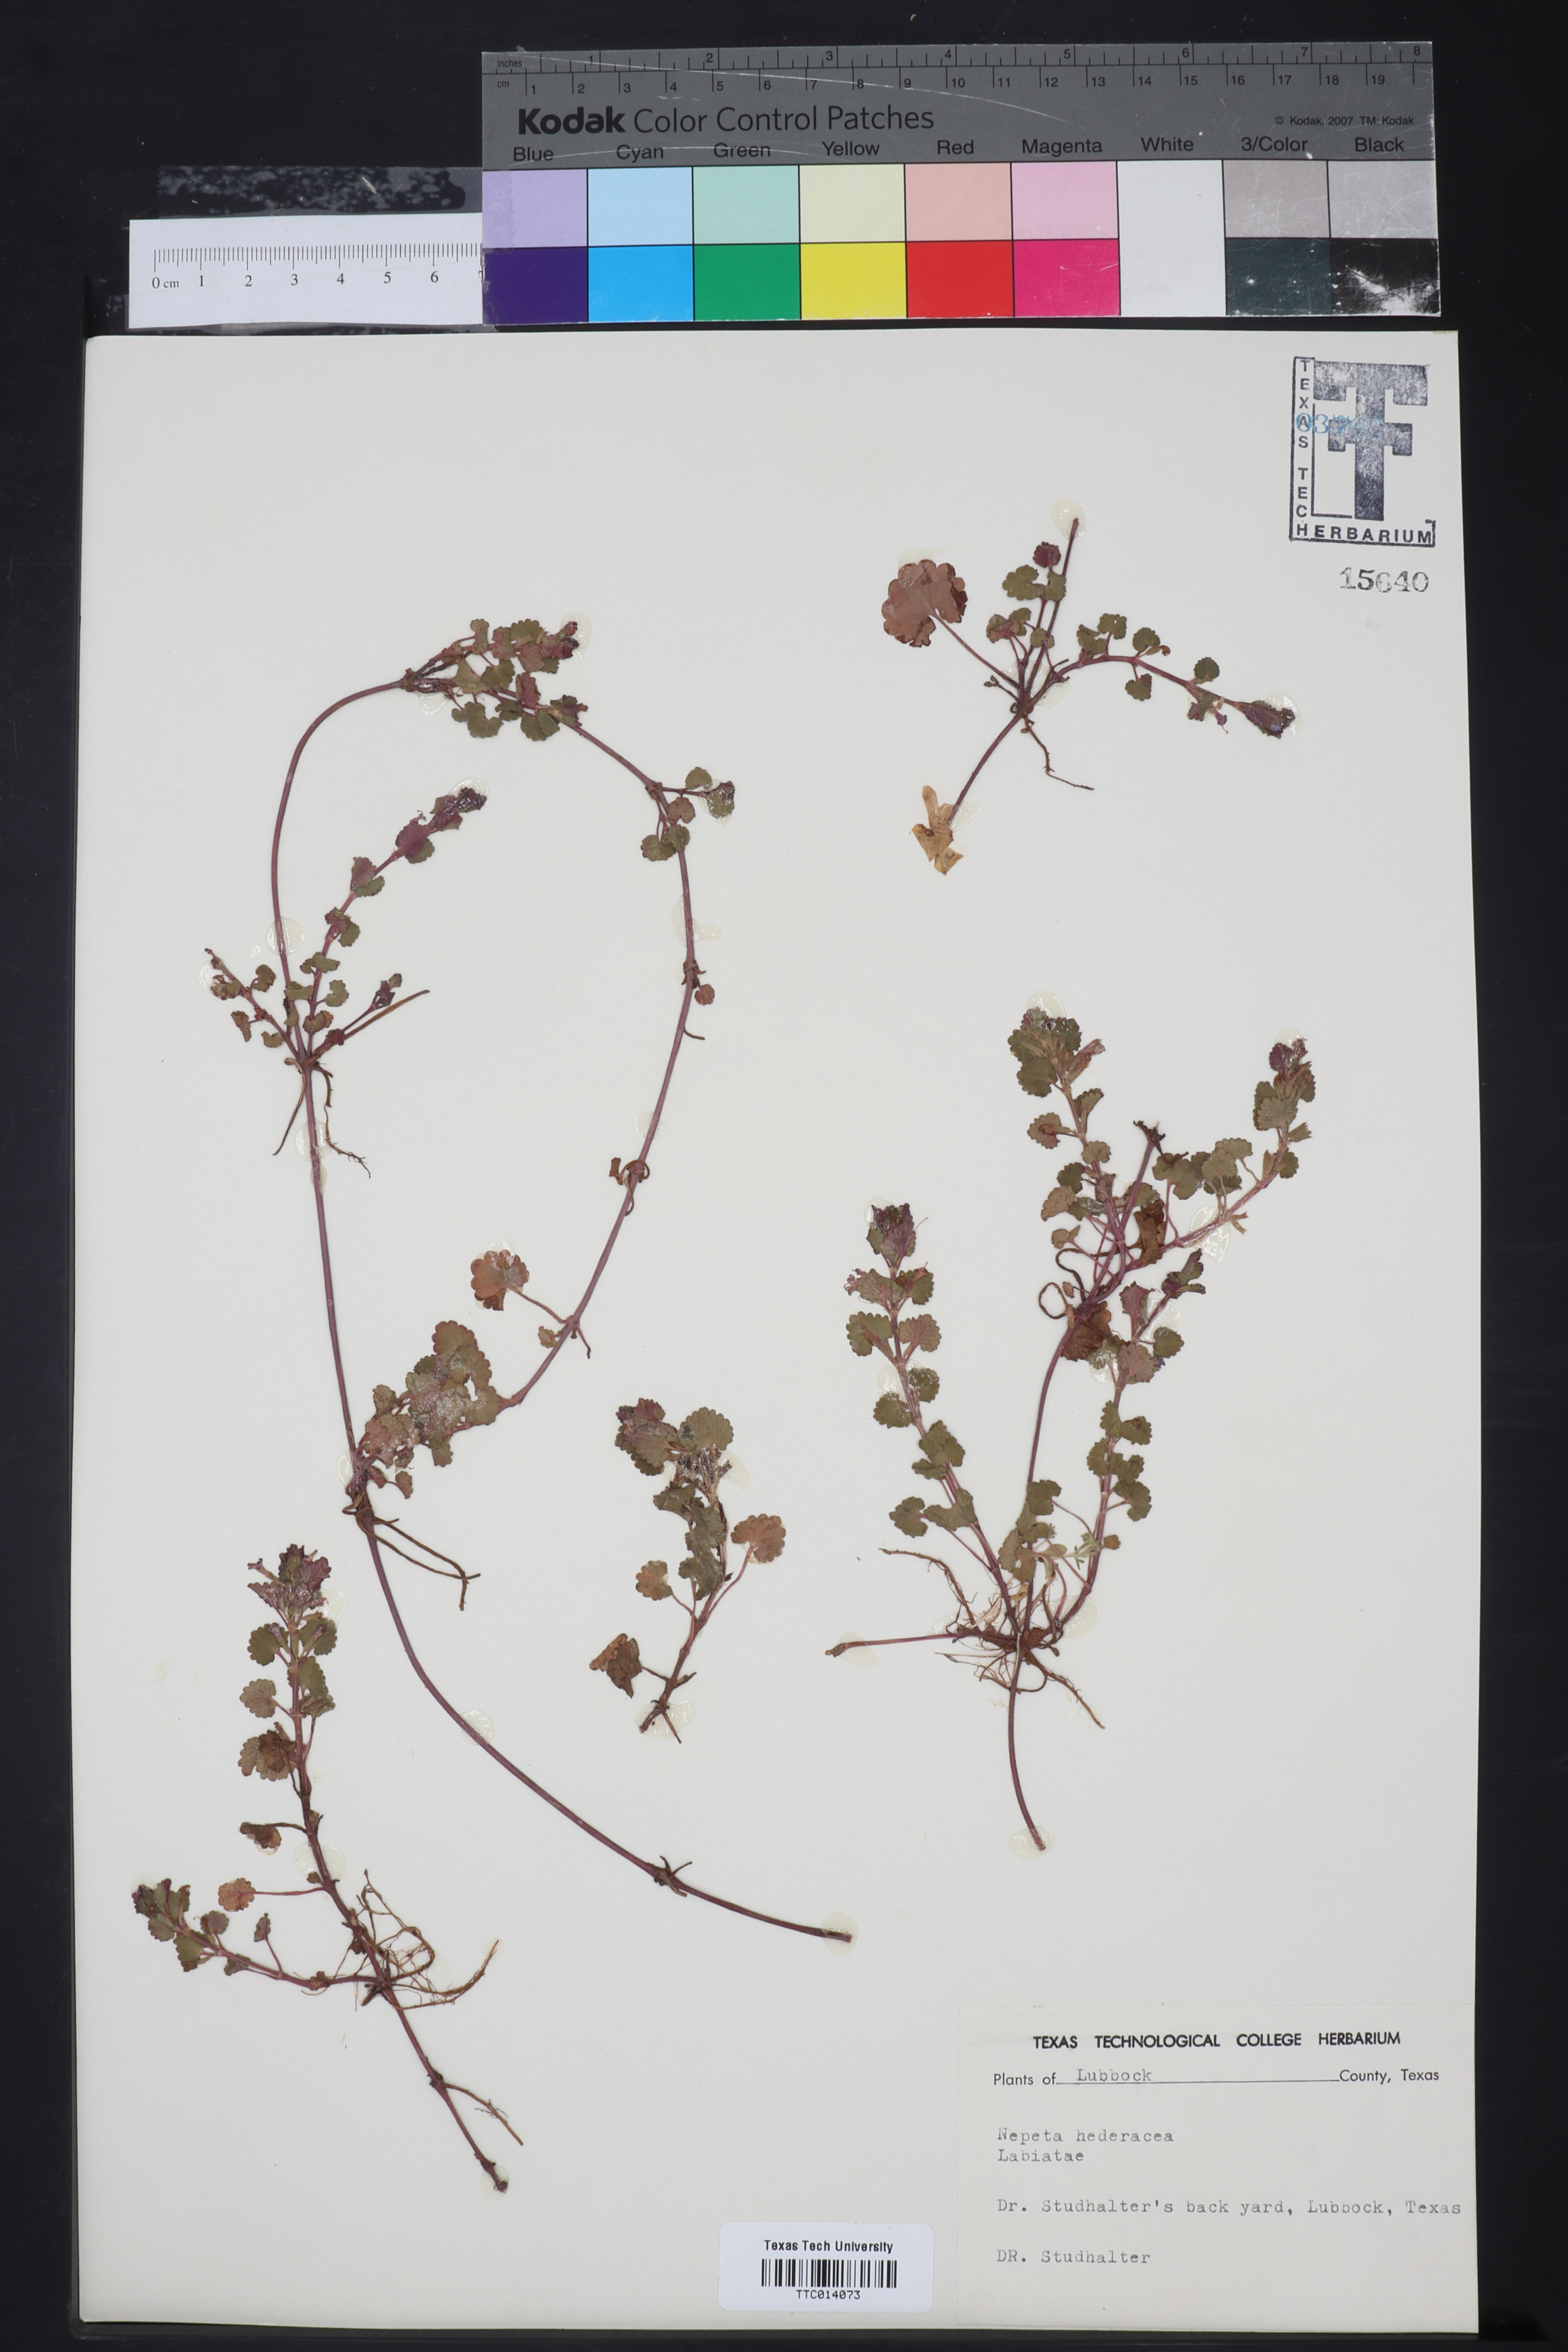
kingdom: Plantae
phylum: Tracheophyta
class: Magnoliopsida
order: Lamiales
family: Lamiaceae
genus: Nepeta
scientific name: Nepeta hederacea
